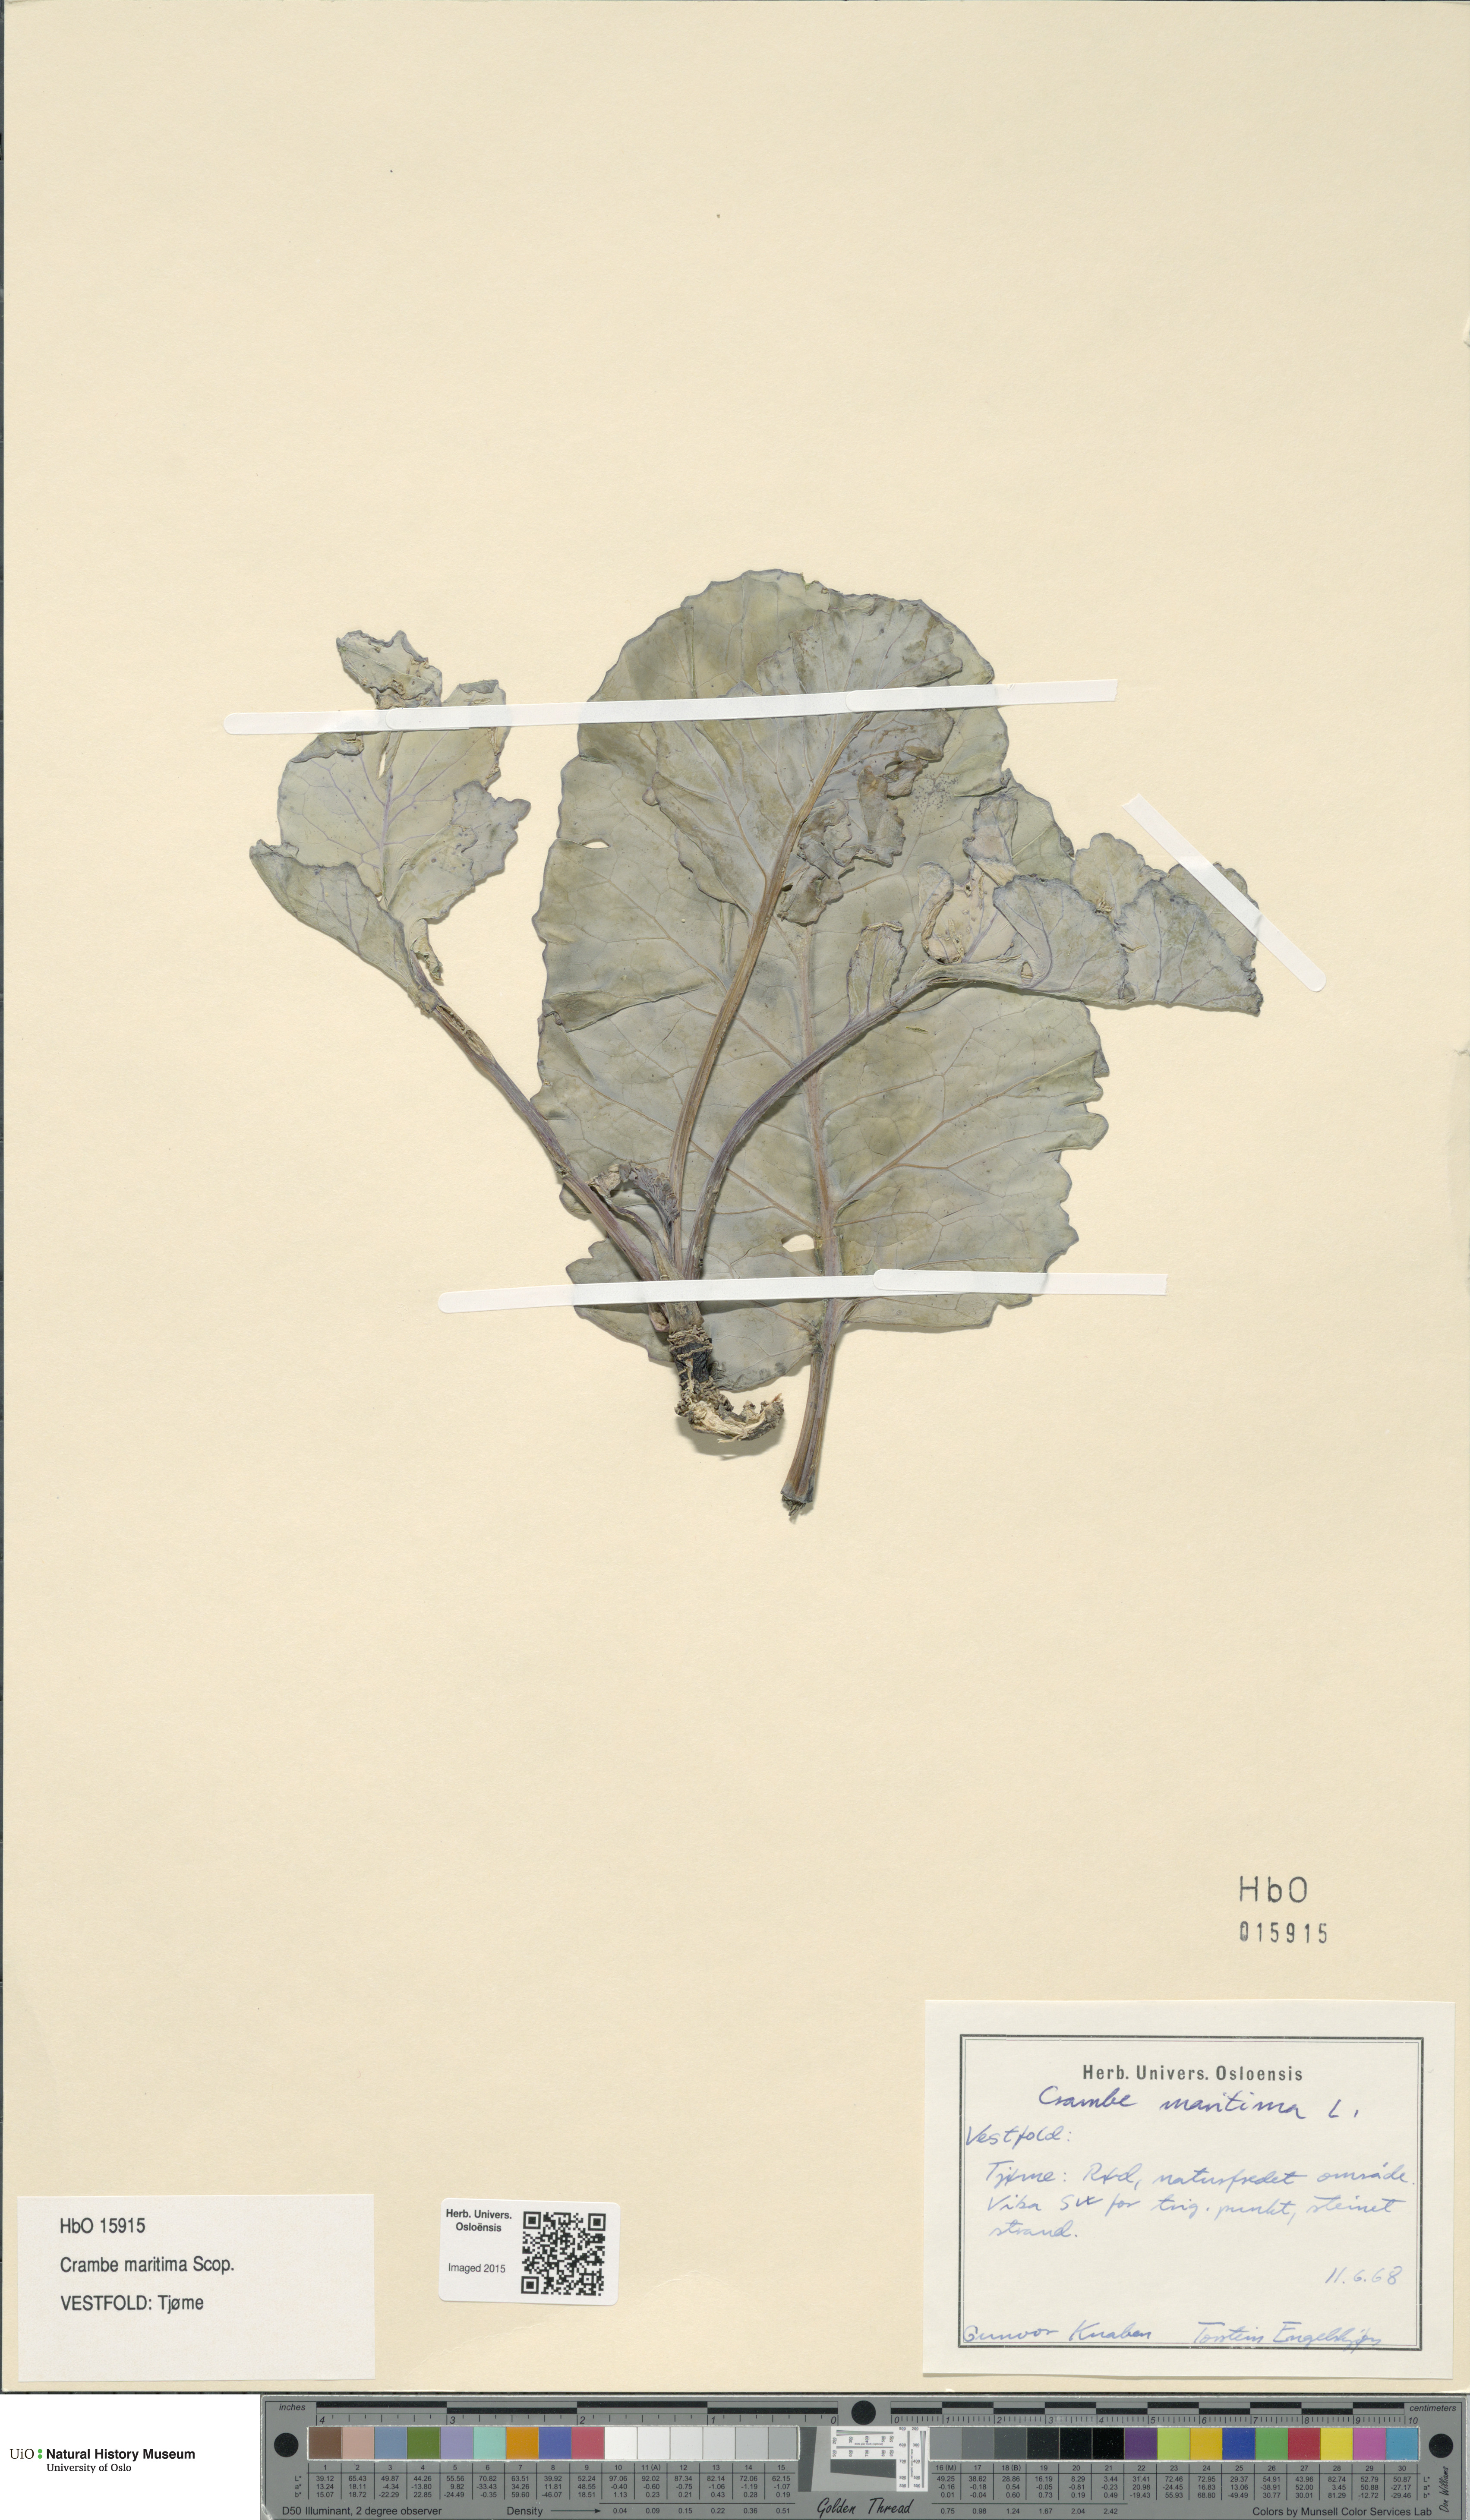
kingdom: Plantae
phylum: Tracheophyta
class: Magnoliopsida
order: Brassicales
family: Brassicaceae
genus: Crambe
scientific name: Crambe maritima
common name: Sea-kale
